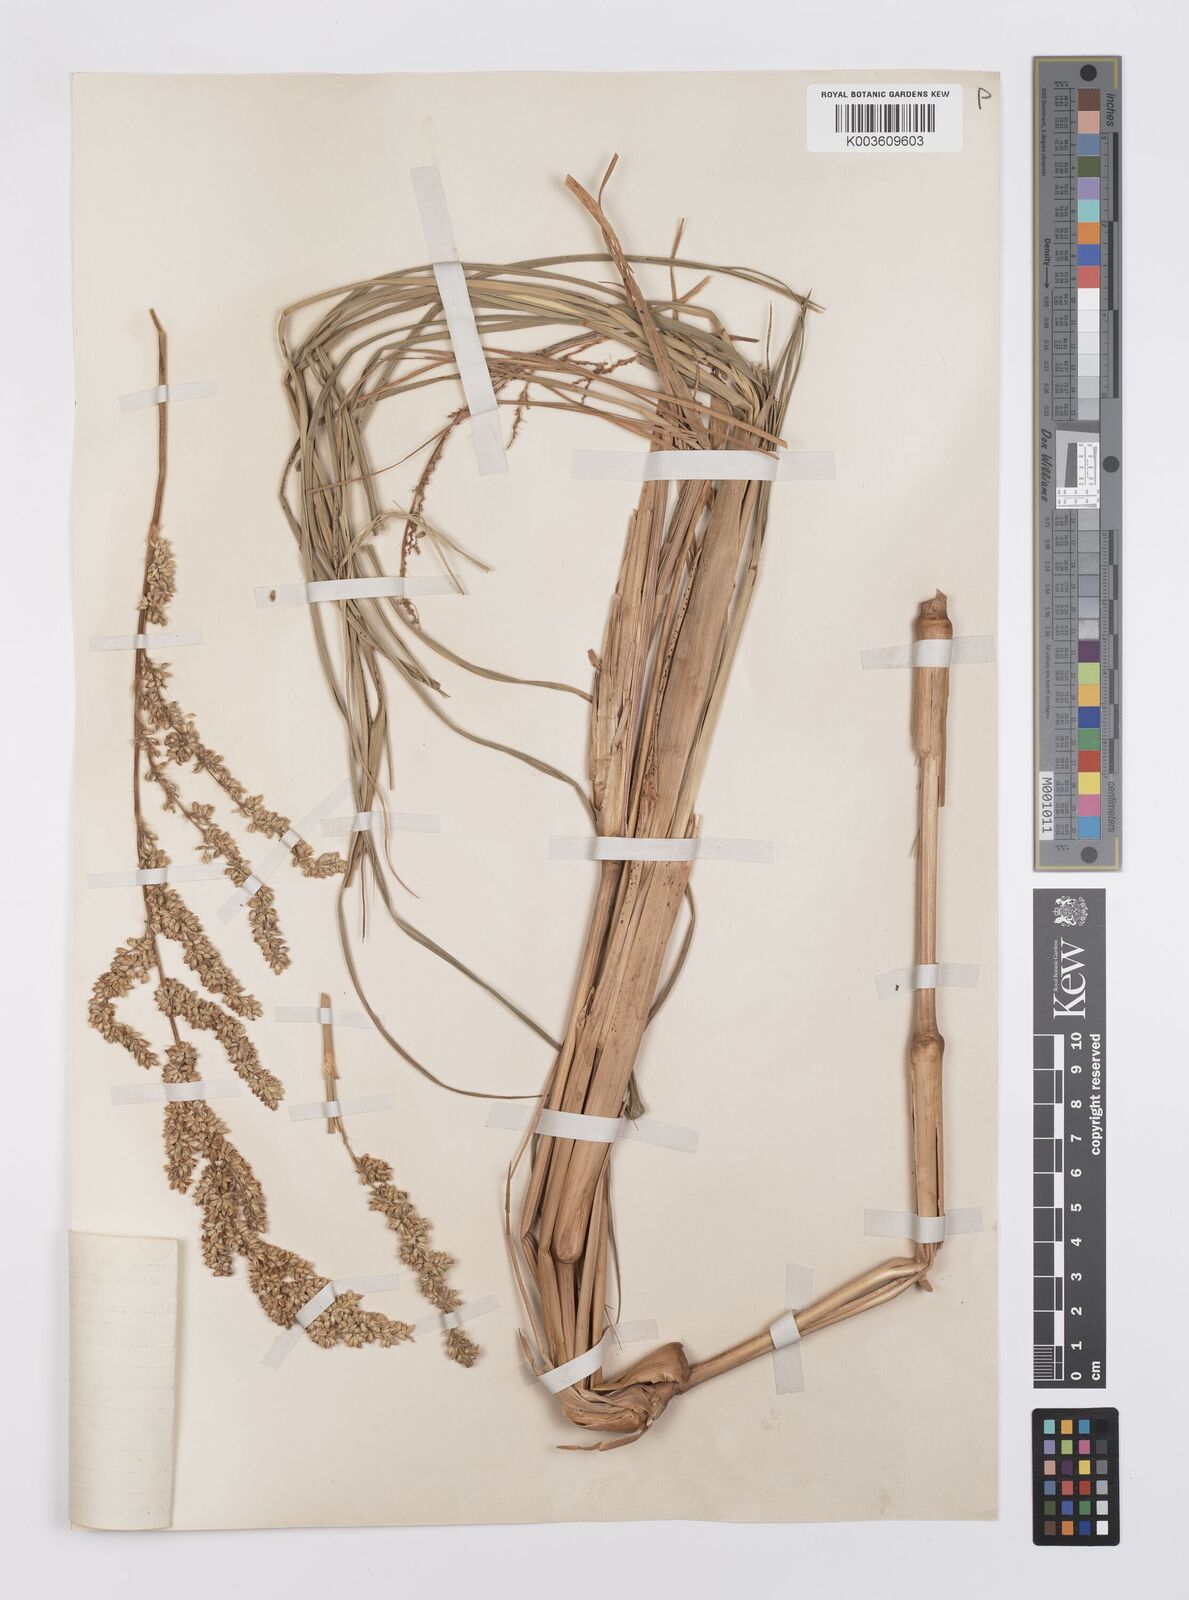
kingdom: Plantae
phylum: Tracheophyta
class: Liliopsida
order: Poales
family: Poaceae
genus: Echinochloa
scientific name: Echinochloa
